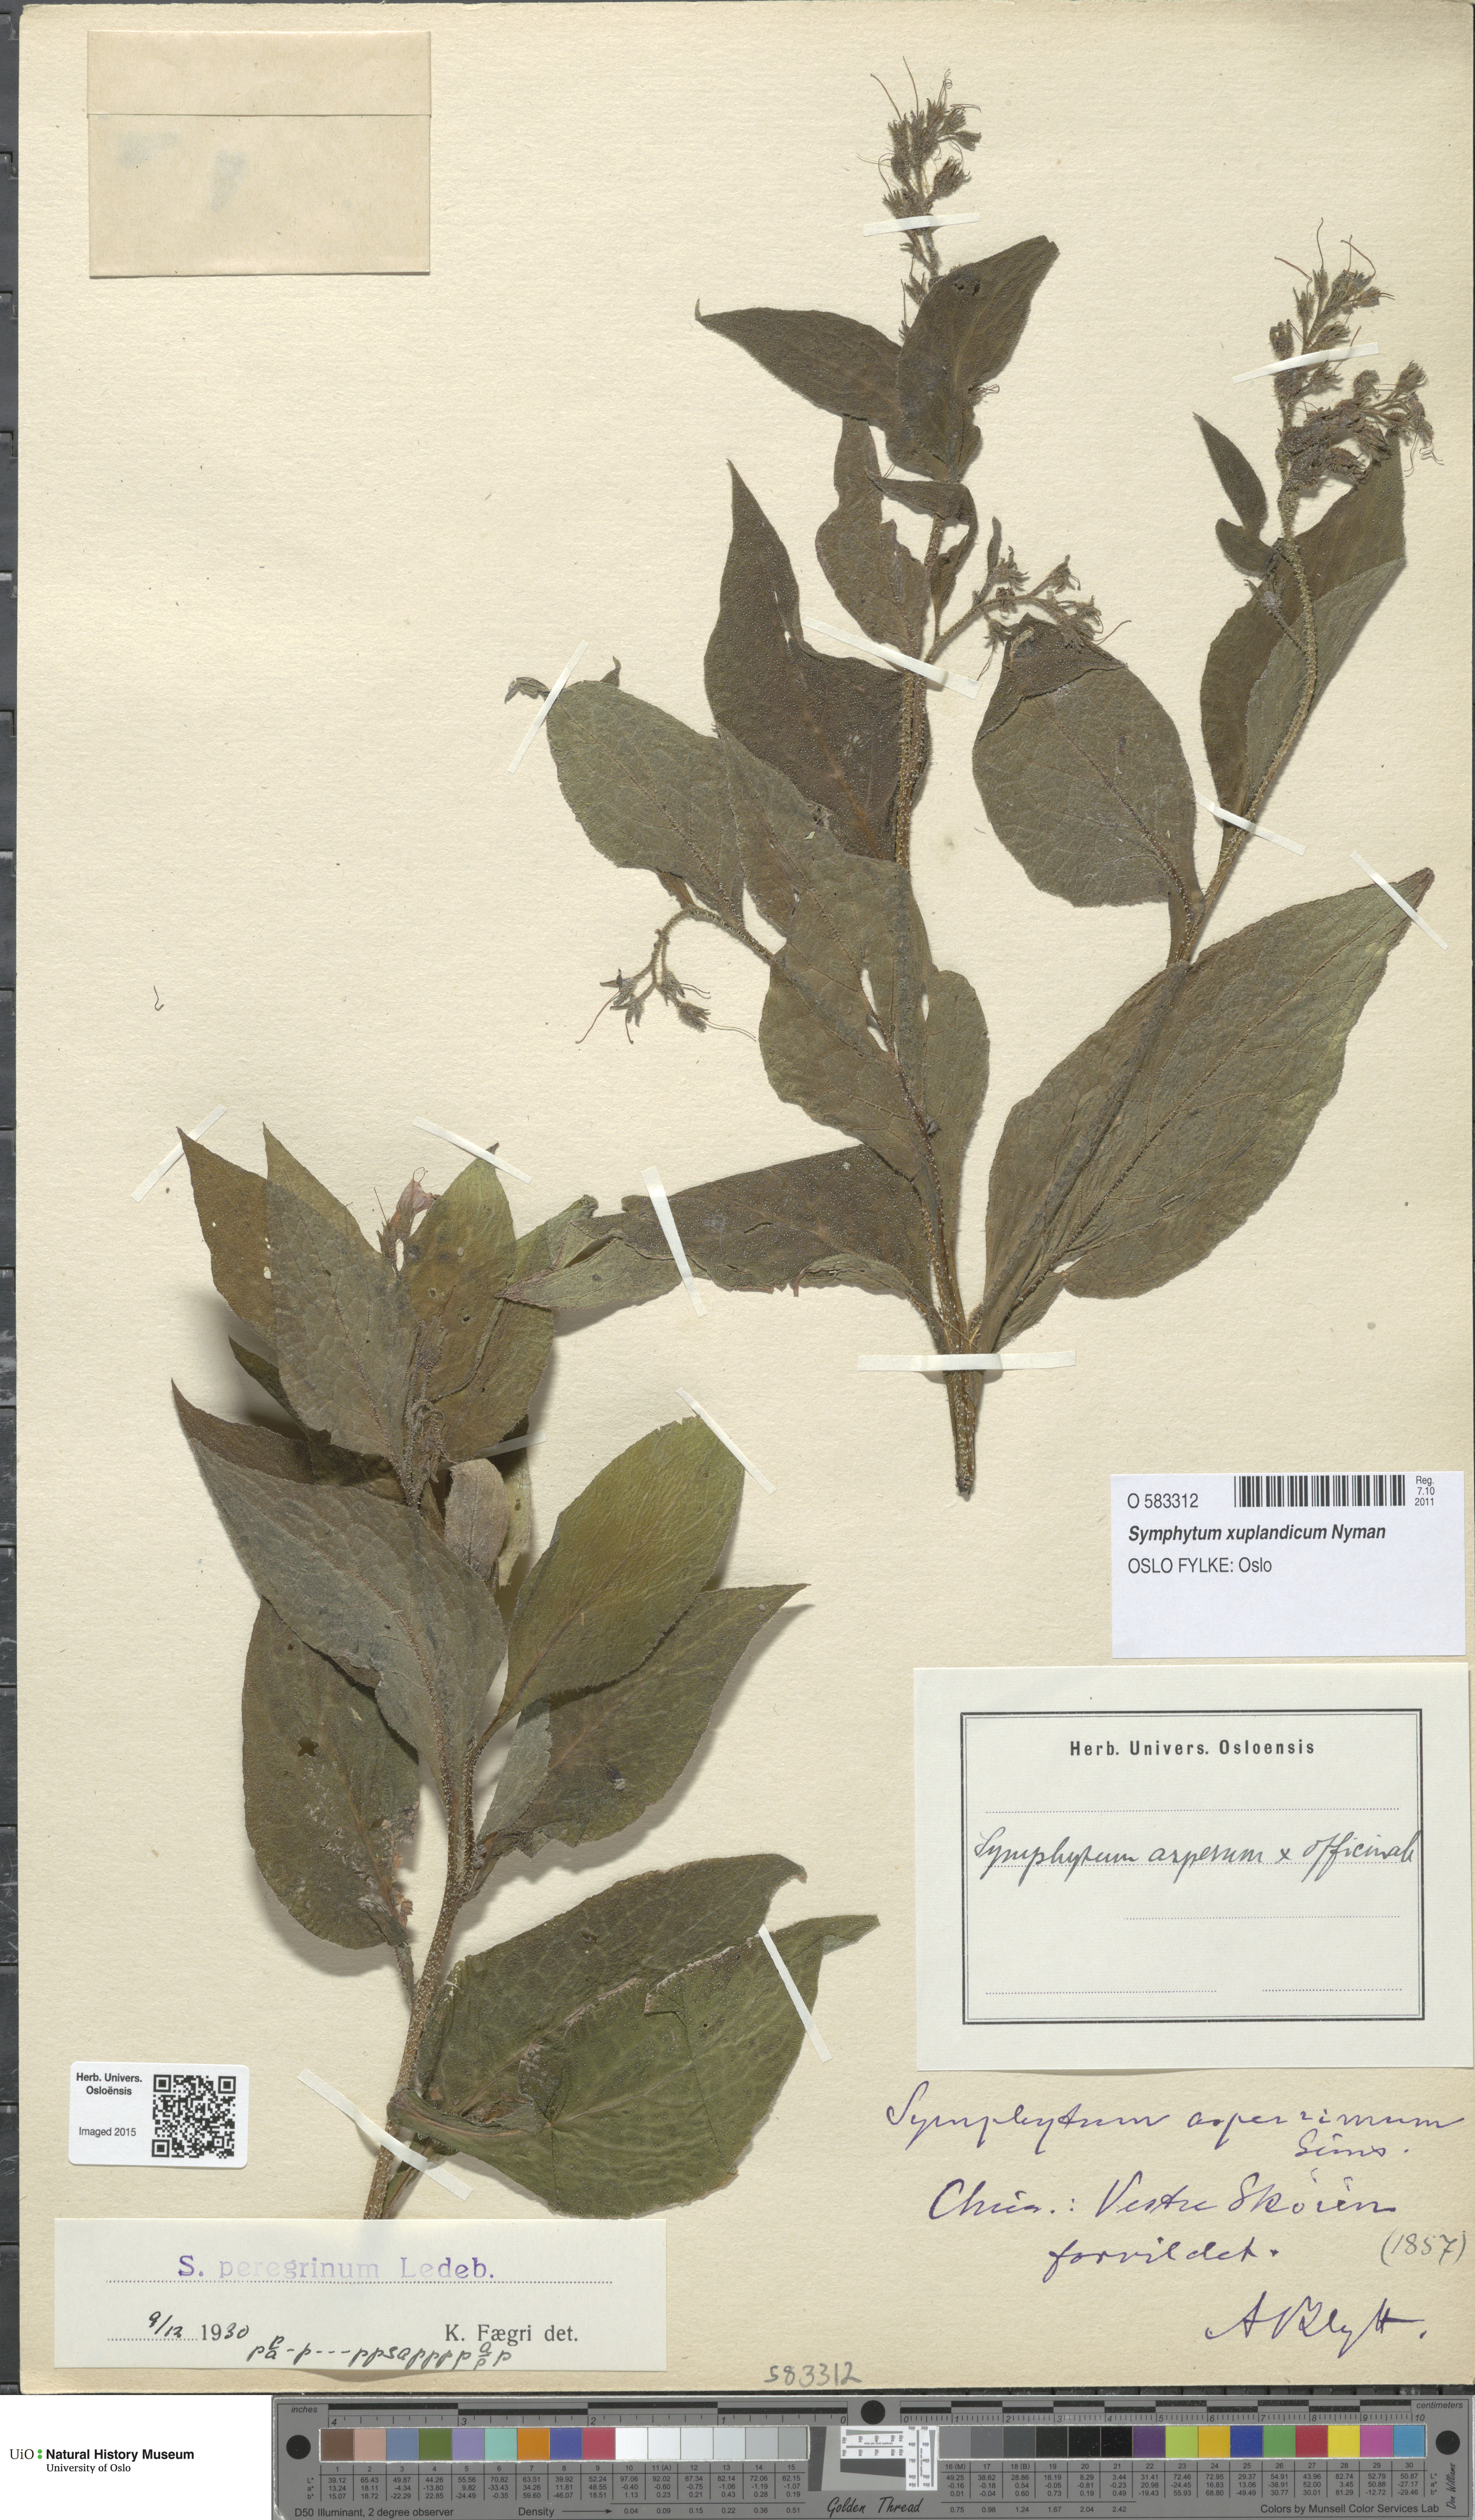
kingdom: Plantae
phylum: Tracheophyta
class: Magnoliopsida
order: Boraginales
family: Boraginaceae
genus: Symphytum
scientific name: Symphytum uplandicum
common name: Russian comfrey
